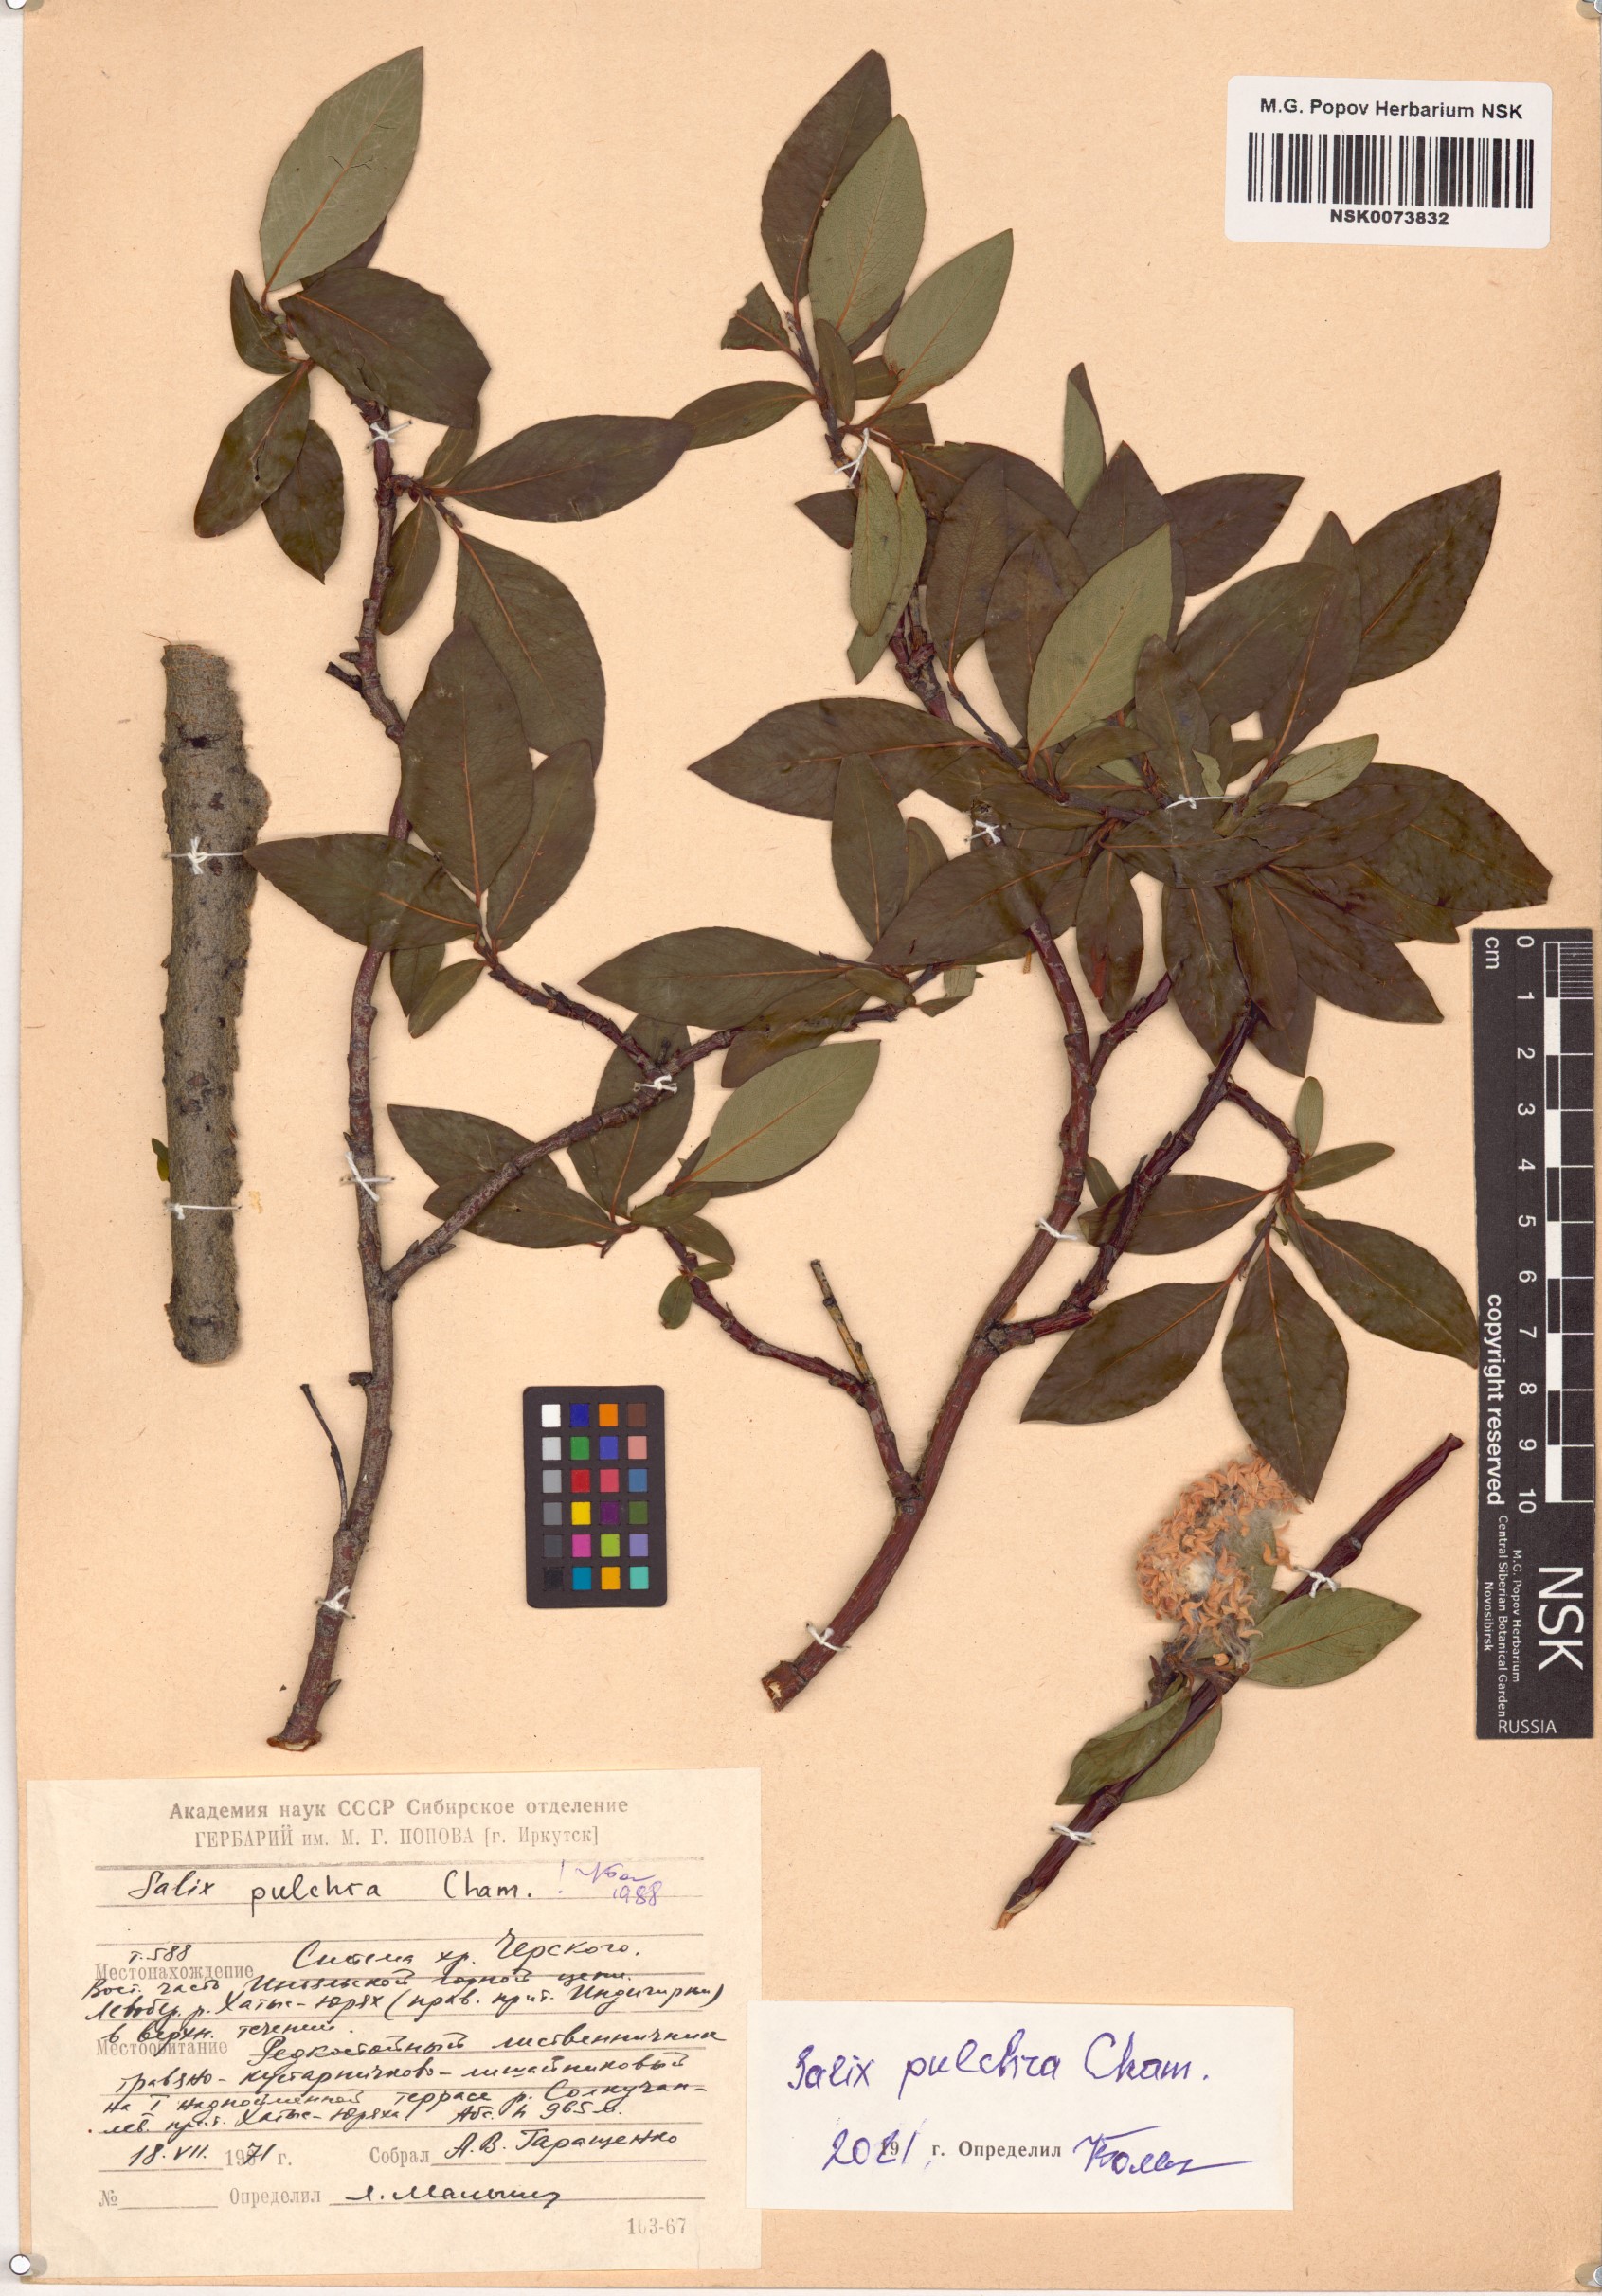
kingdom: Plantae
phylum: Tracheophyta
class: Magnoliopsida
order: Malpighiales
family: Salicaceae
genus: Salix
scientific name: Salix pulchra
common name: Diamond-leaved willow
